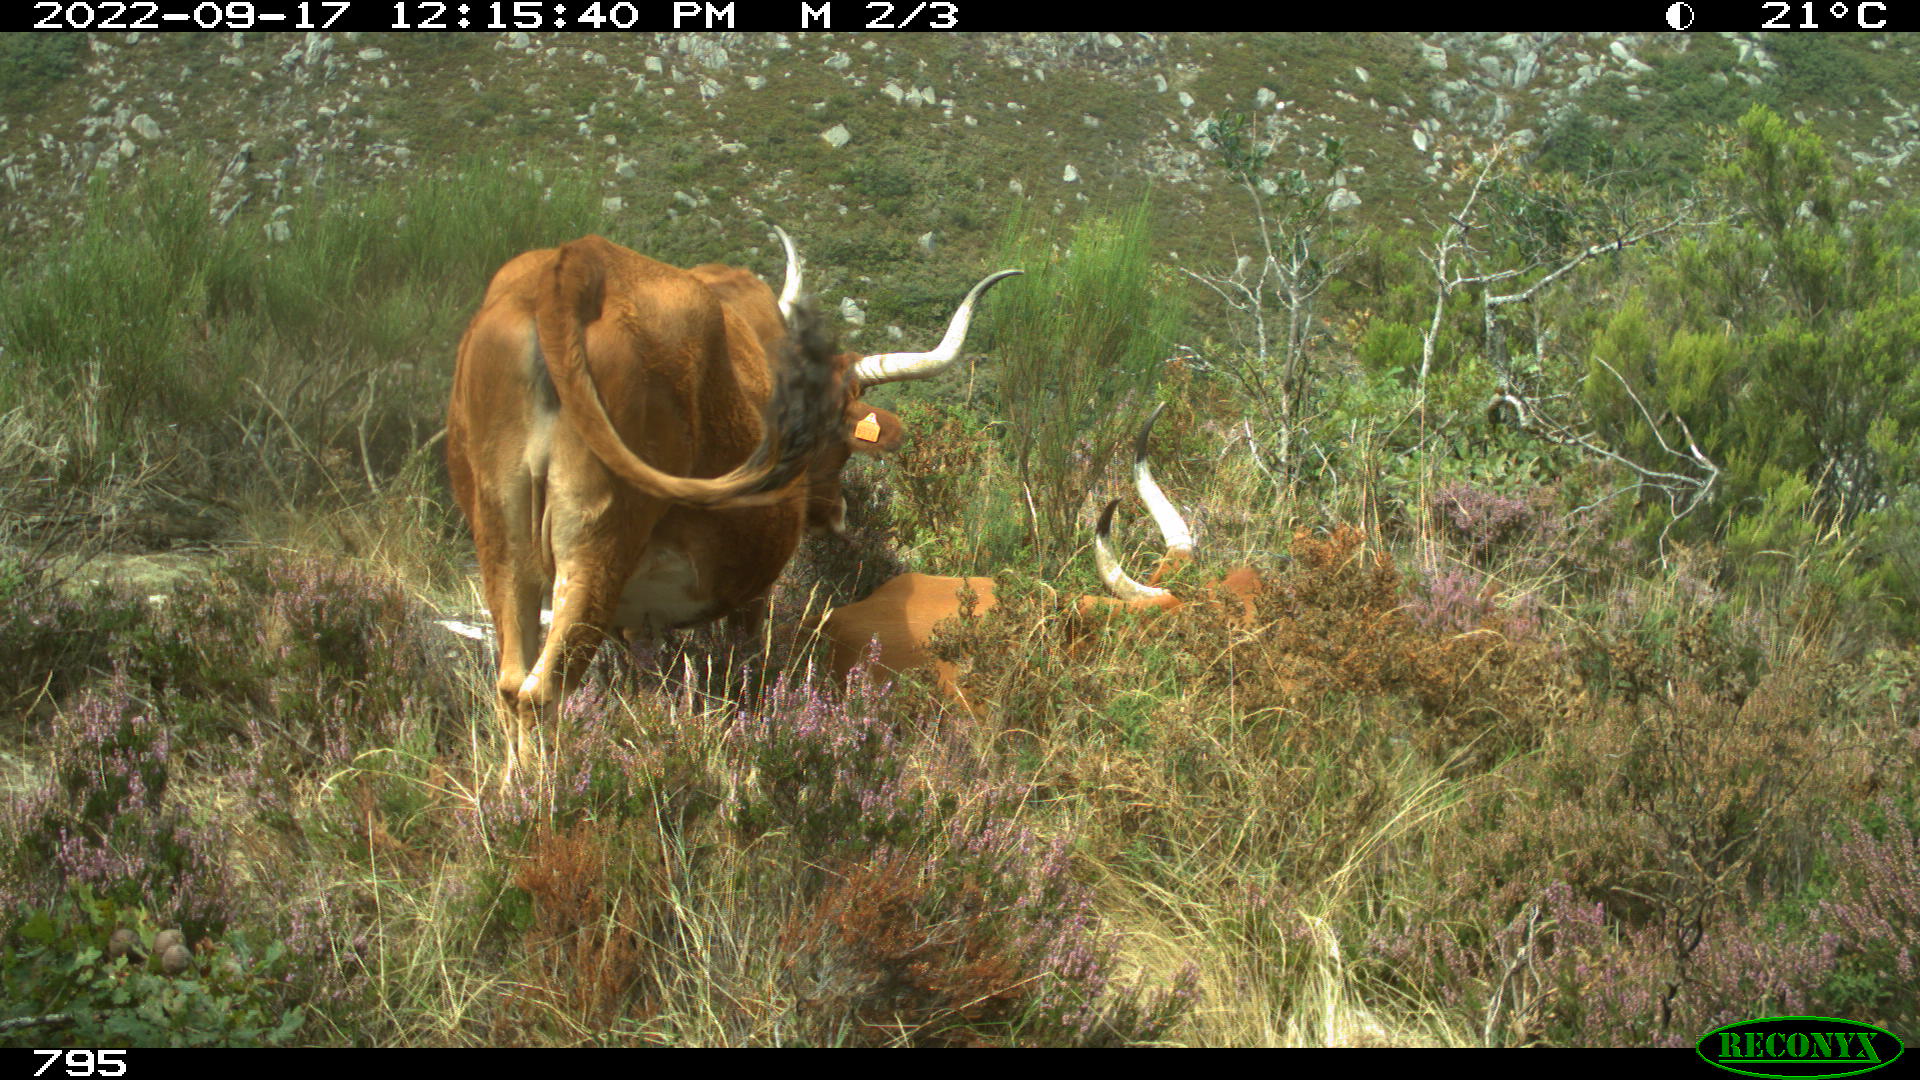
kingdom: Animalia
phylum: Chordata
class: Mammalia
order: Artiodactyla
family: Bovidae
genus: Bos
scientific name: Bos taurus
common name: Domesticated cattle
